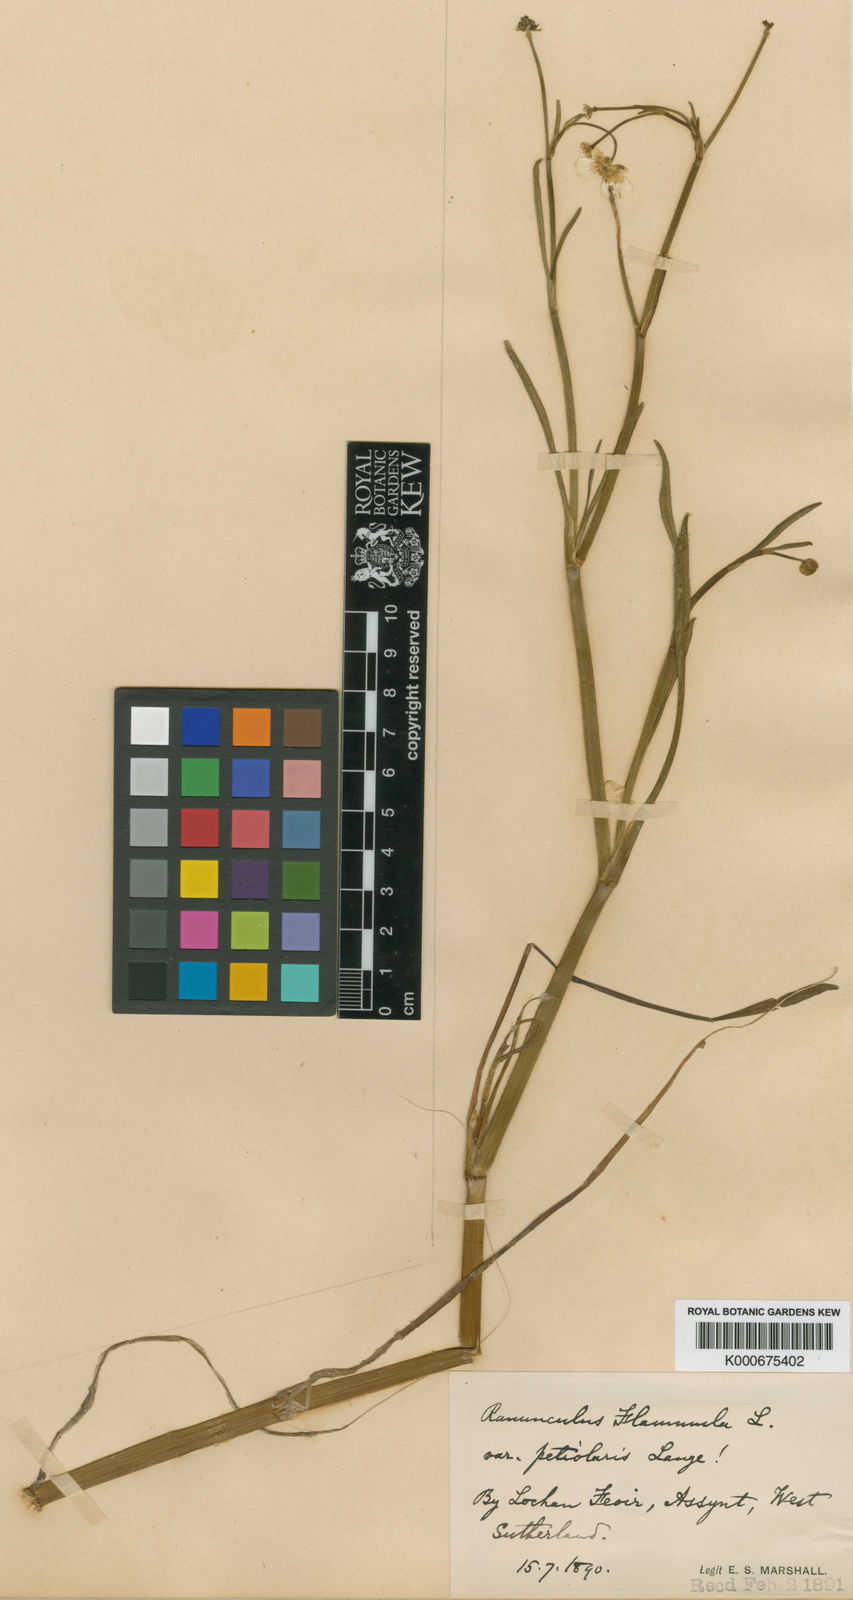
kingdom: Plantae
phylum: Tracheophyta
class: Magnoliopsida
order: Ranunculales
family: Ranunculaceae
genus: Ranunculus
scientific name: Ranunculus flammula
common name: Lesser spearwort
